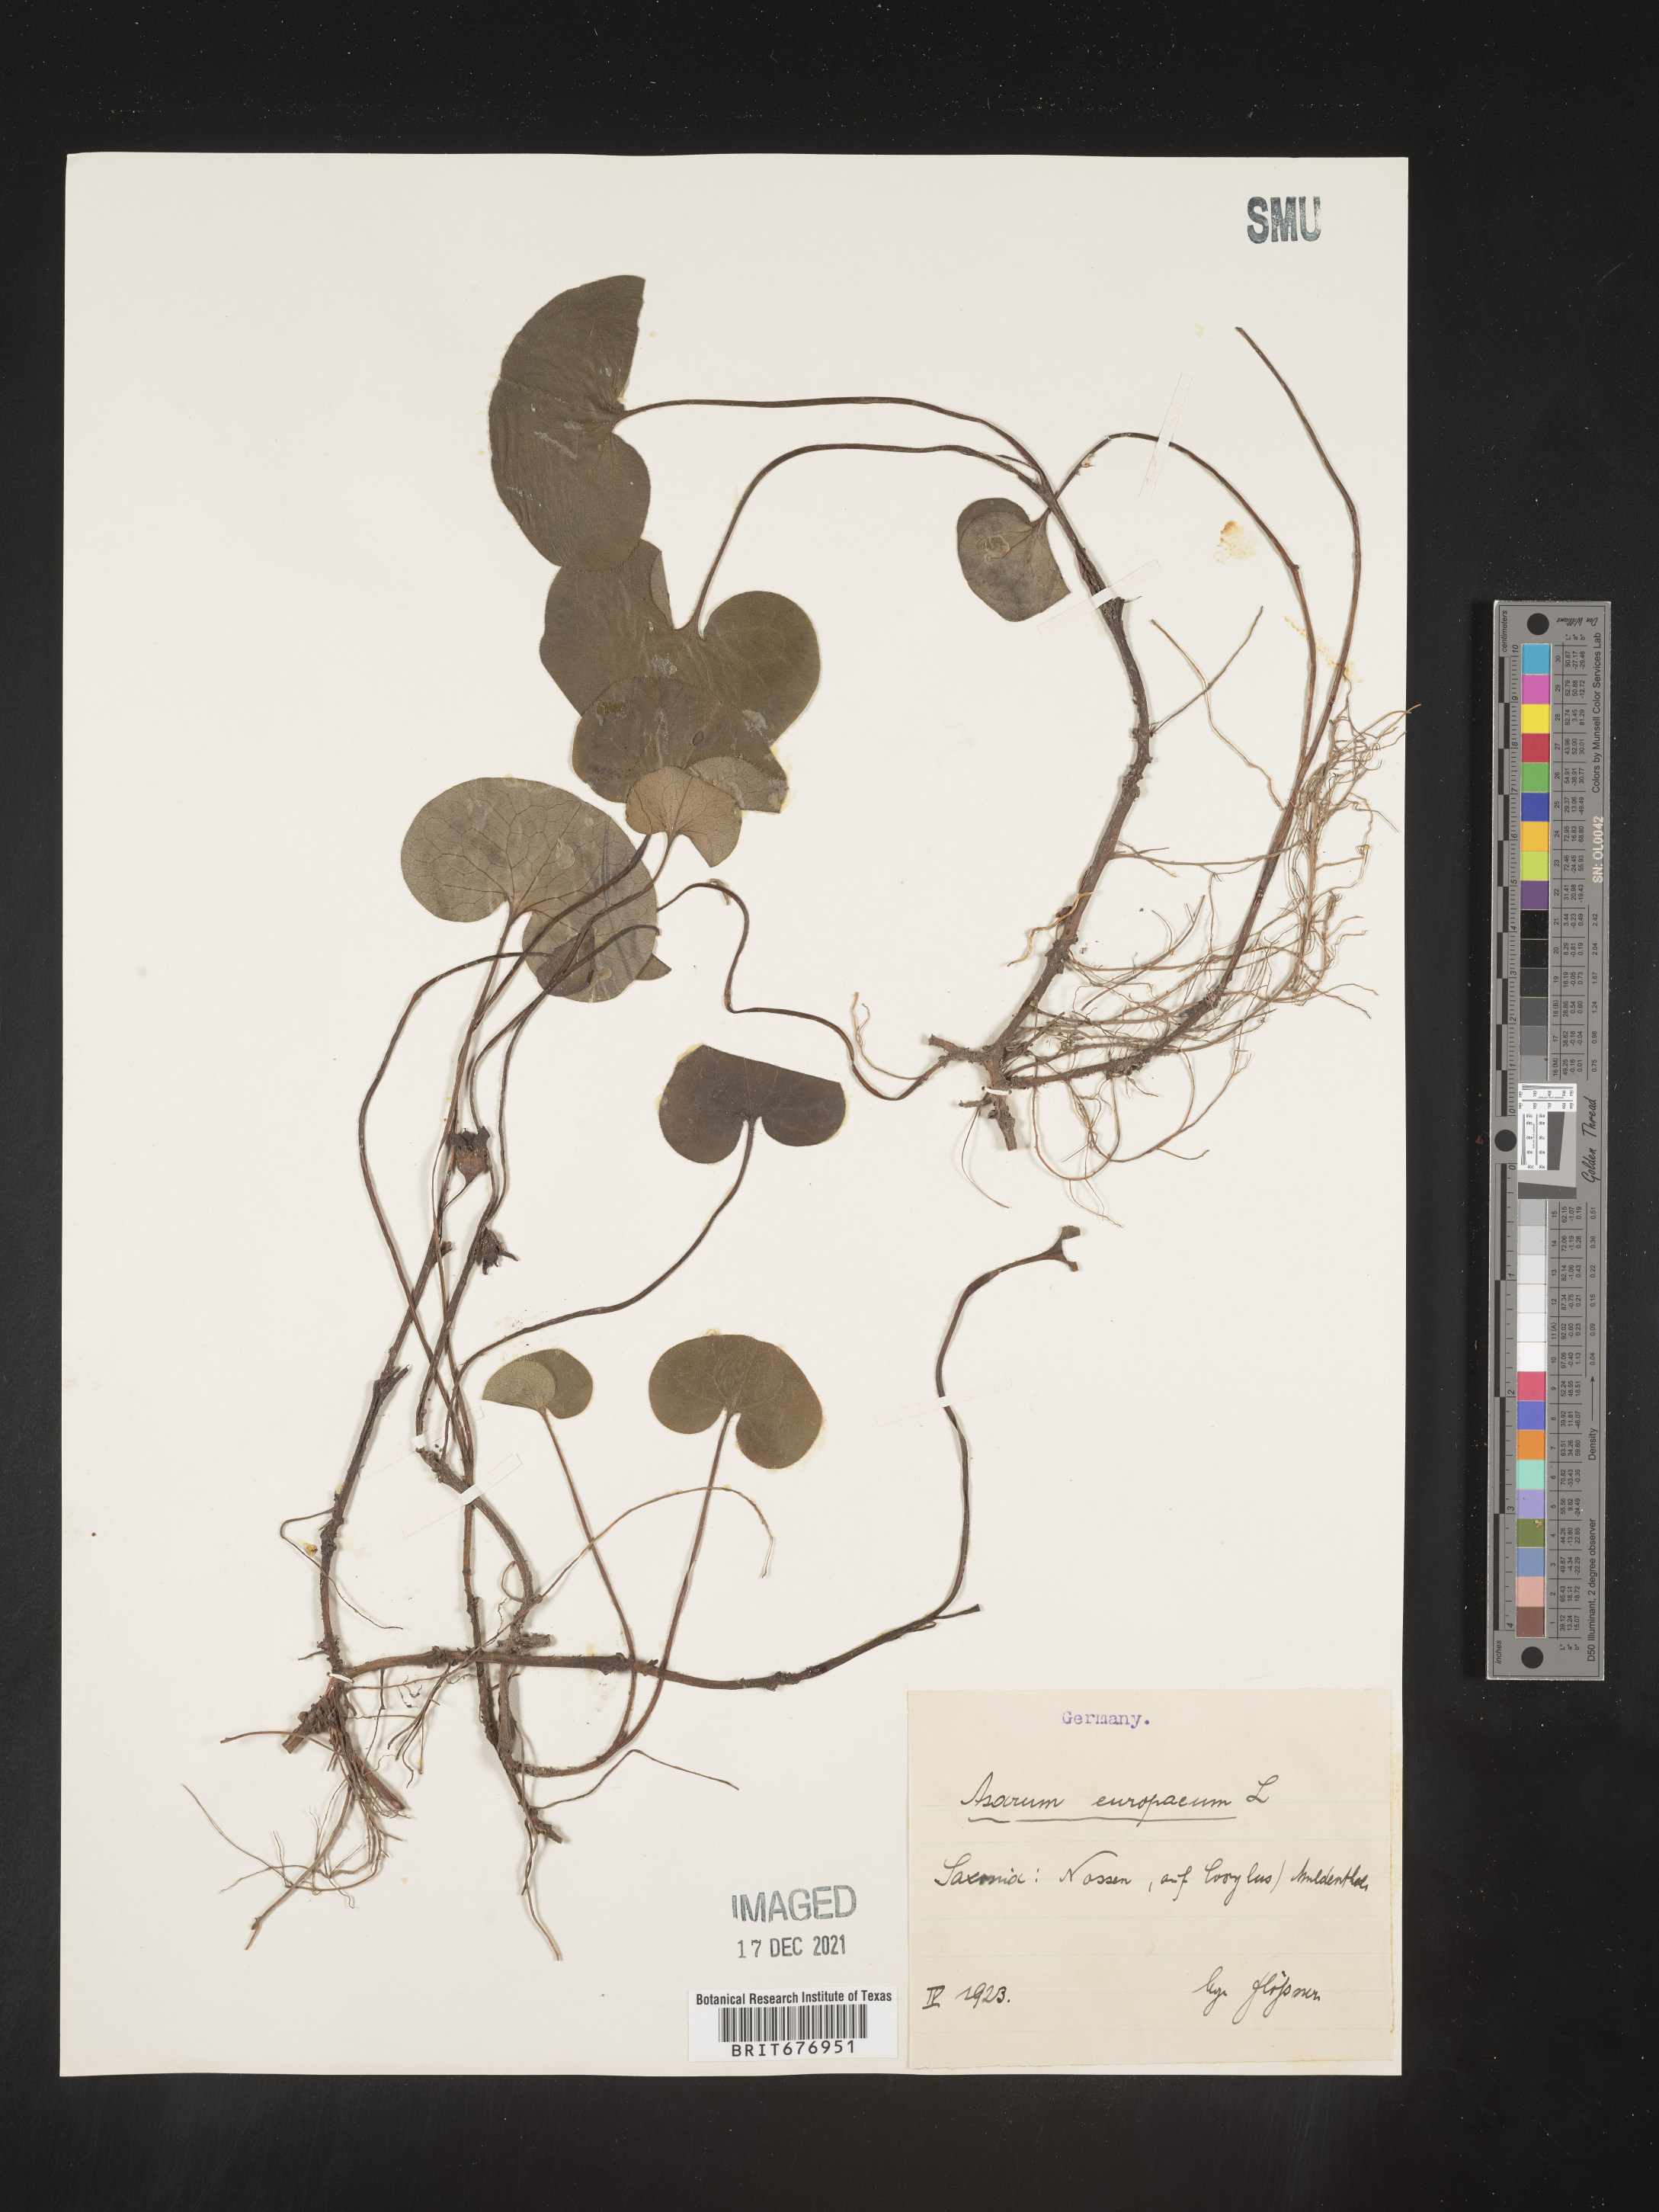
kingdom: Plantae
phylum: Tracheophyta
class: Magnoliopsida
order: Piperales
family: Aristolochiaceae
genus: Asarum
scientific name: Asarum
